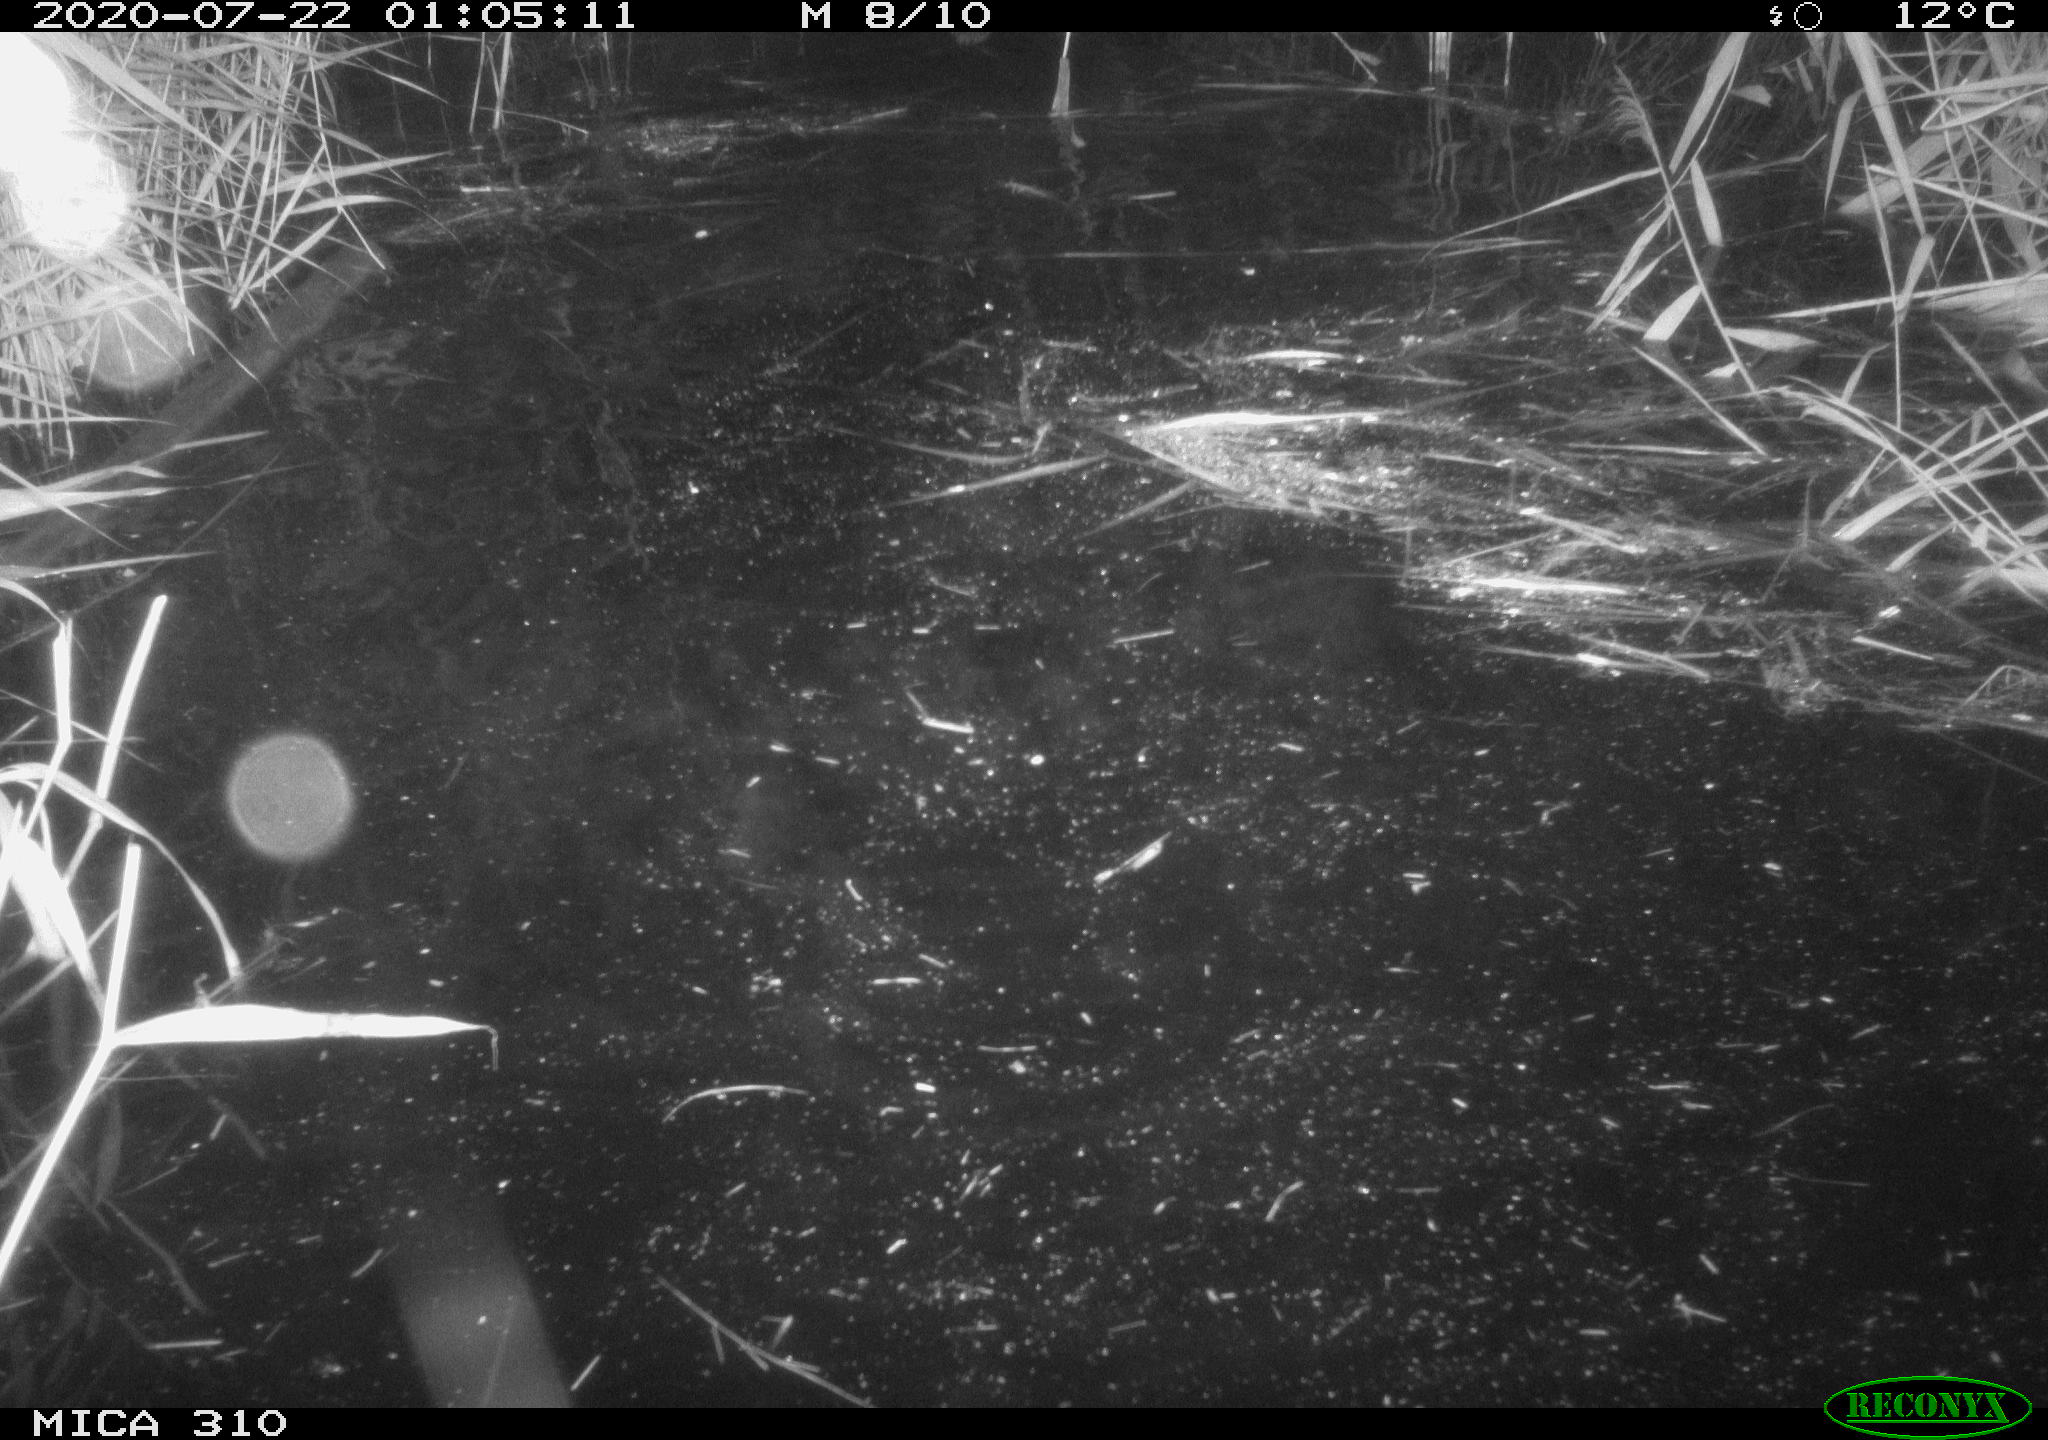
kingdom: Animalia
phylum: Chordata
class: Mammalia
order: Rodentia
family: Cricetidae
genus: Ondatra
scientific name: Ondatra zibethicus
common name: Muskrat
